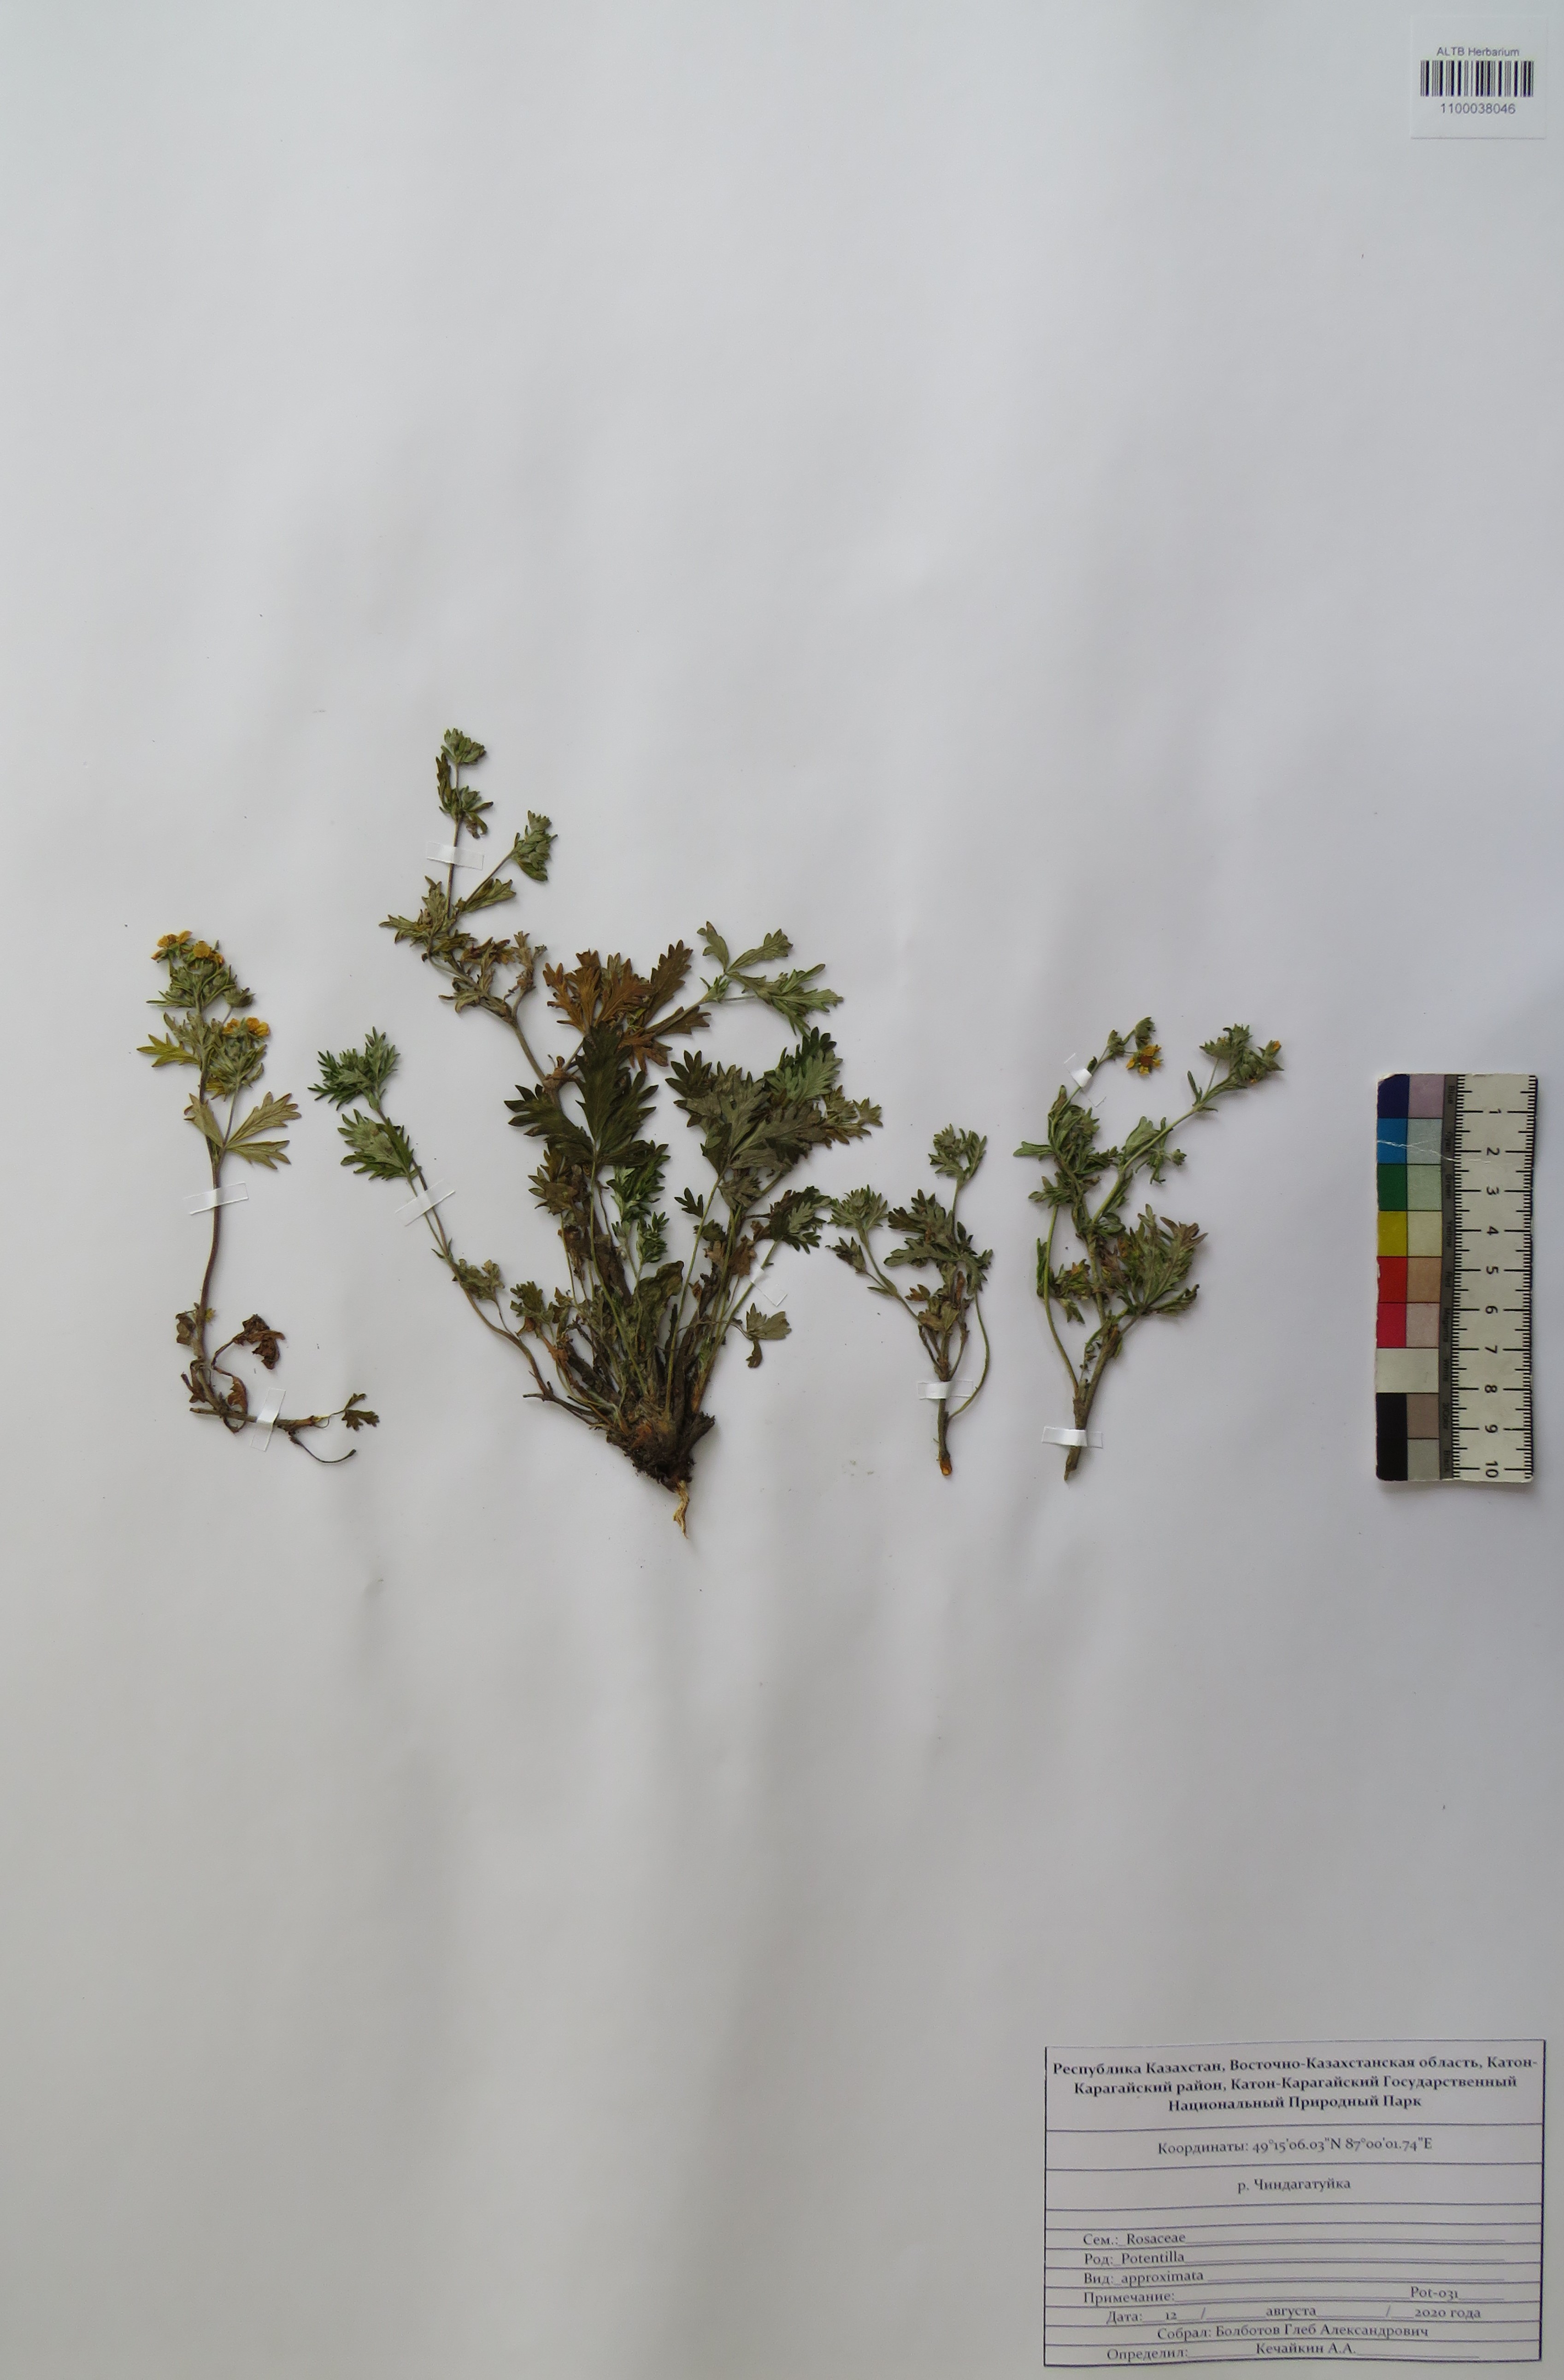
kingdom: Plantae
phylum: Tracheophyta
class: Magnoliopsida
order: Rosales
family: Rosaceae
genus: Potentilla
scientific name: Potentilla conferta
